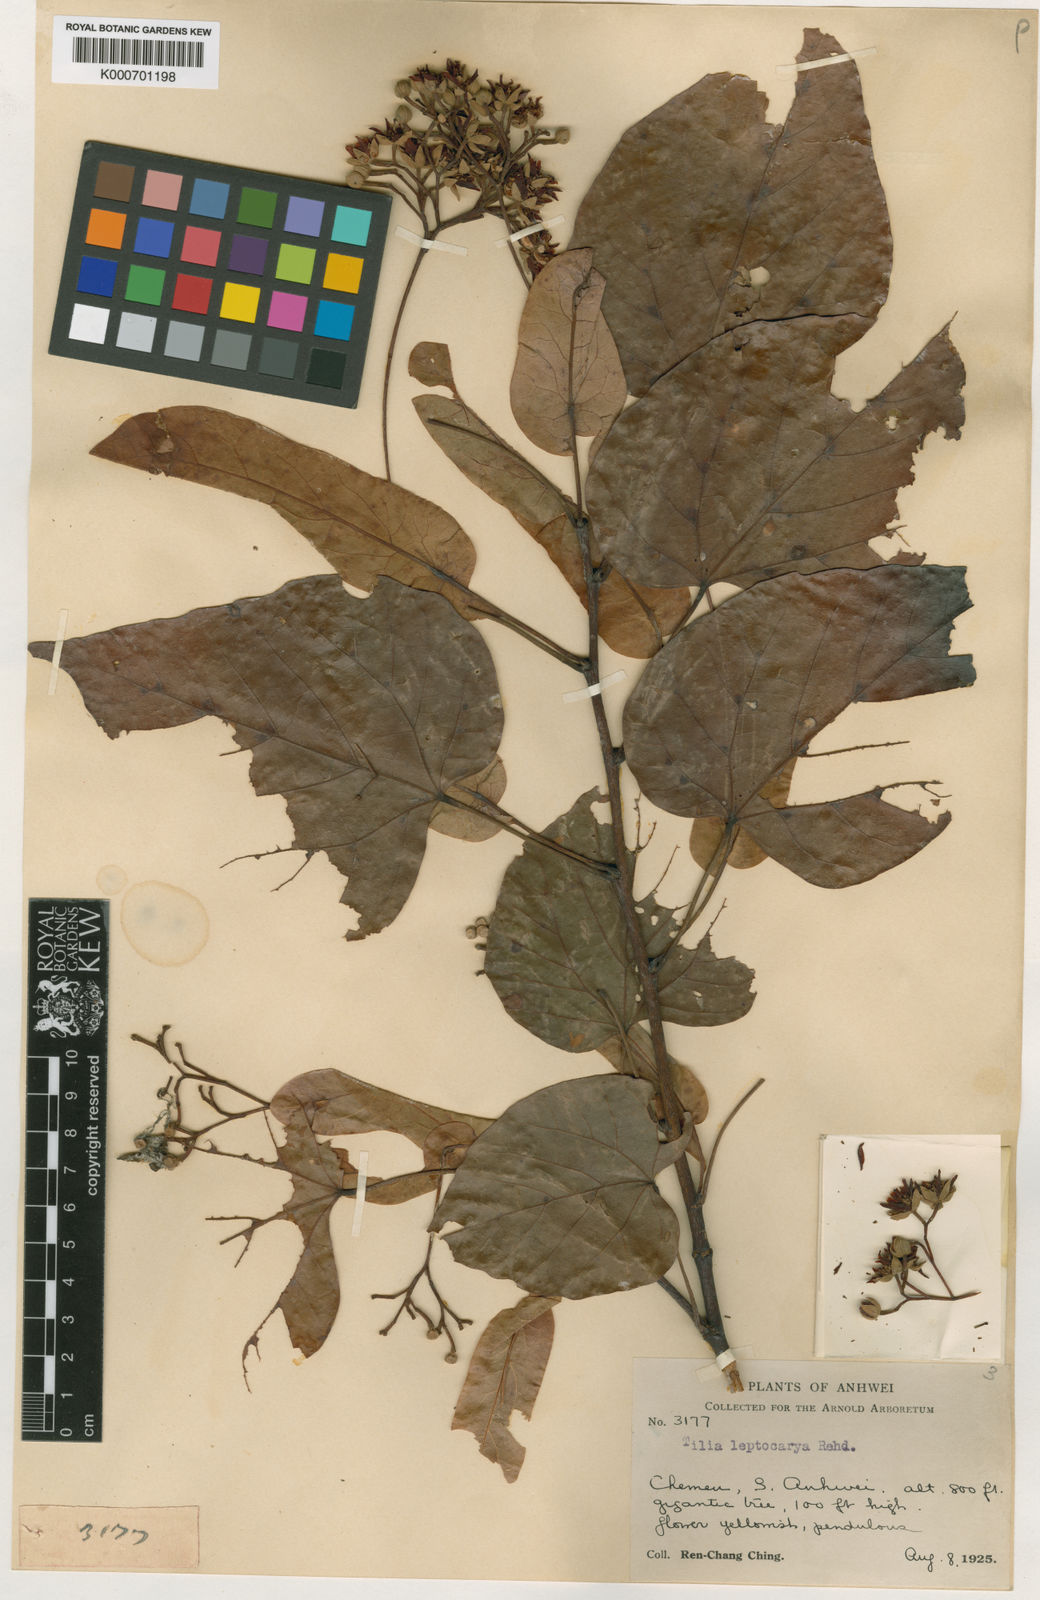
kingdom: Plantae
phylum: Tracheophyta
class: Magnoliopsida
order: Malvales
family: Malvaceae
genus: Tilia
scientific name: Tilia endochrysea
